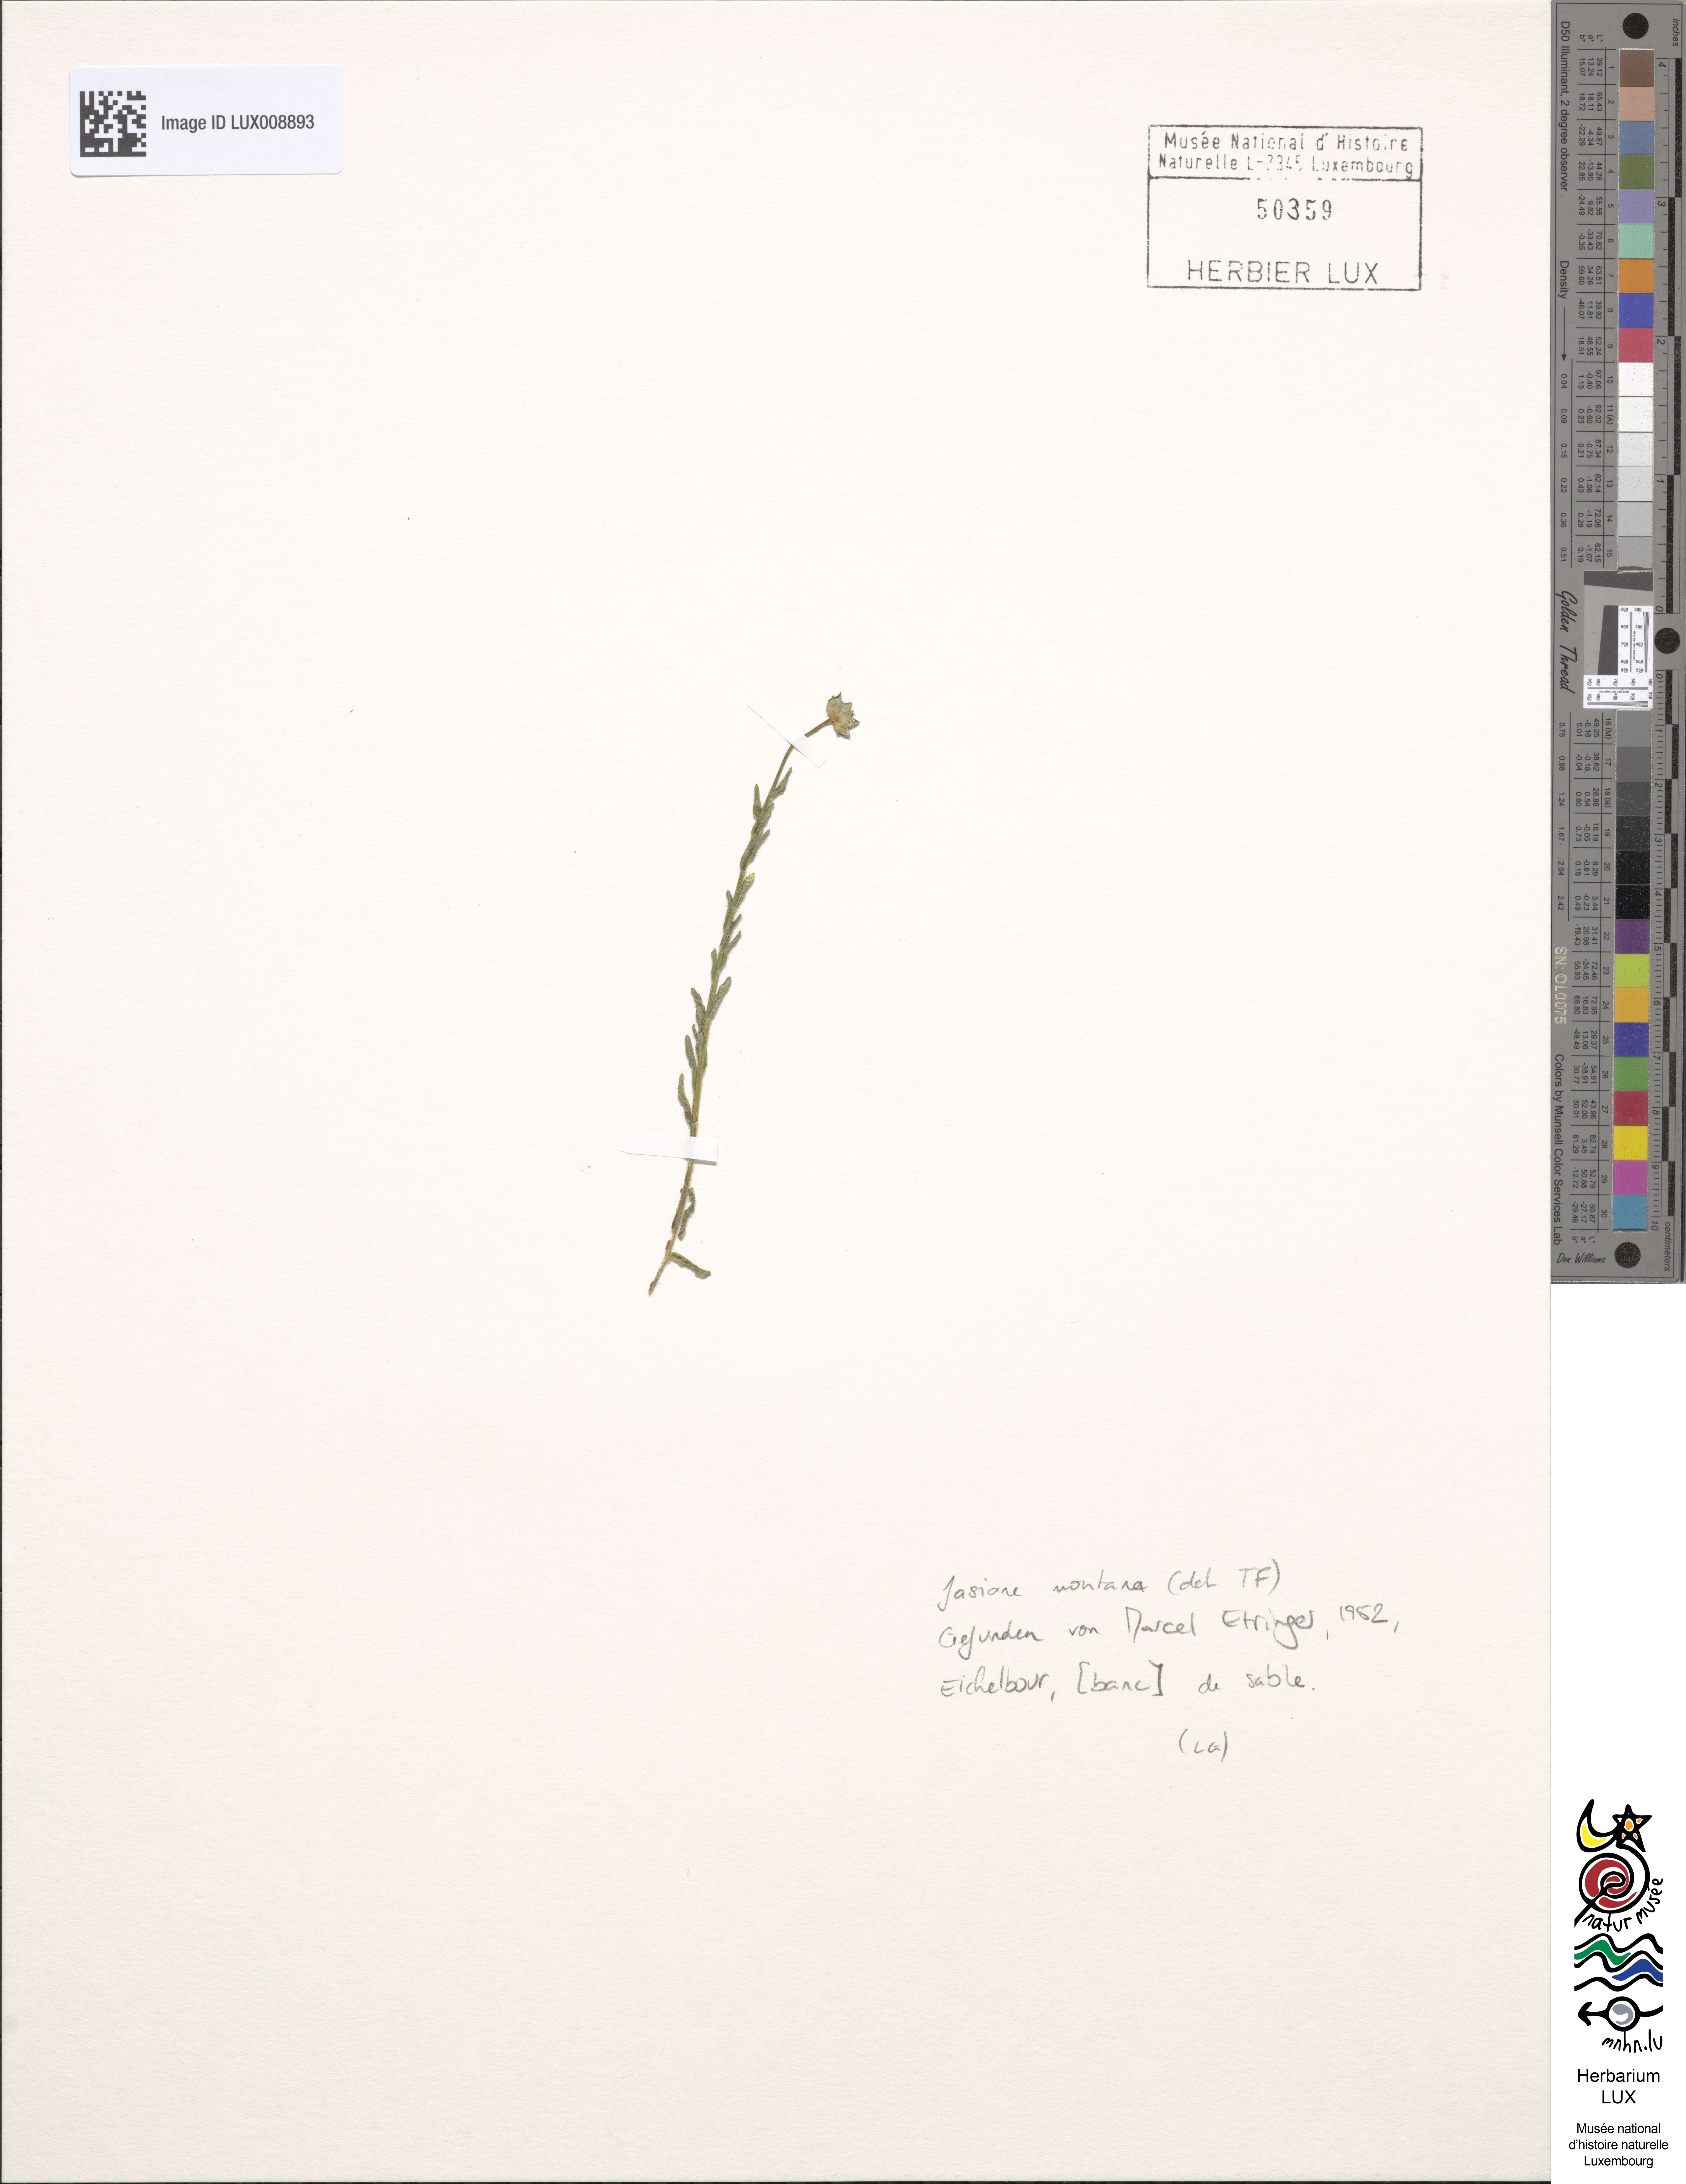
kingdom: Plantae
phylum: Tracheophyta
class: Magnoliopsida
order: Asterales
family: Campanulaceae
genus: Jasione
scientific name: Jasione montana
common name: Sheep's-bit
